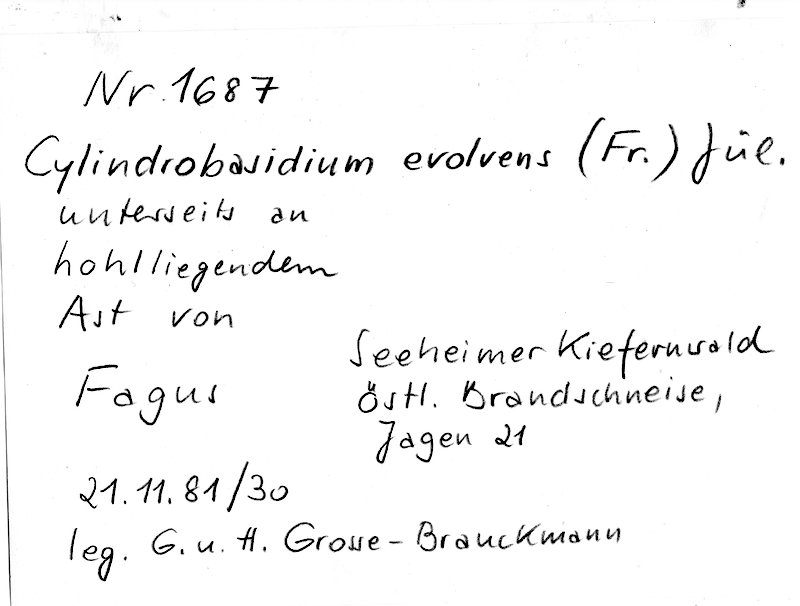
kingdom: Plantae
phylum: Tracheophyta
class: Magnoliopsida
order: Fagales
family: Fagaceae
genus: Fagus
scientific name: Fagus sylvatica
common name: Beech
